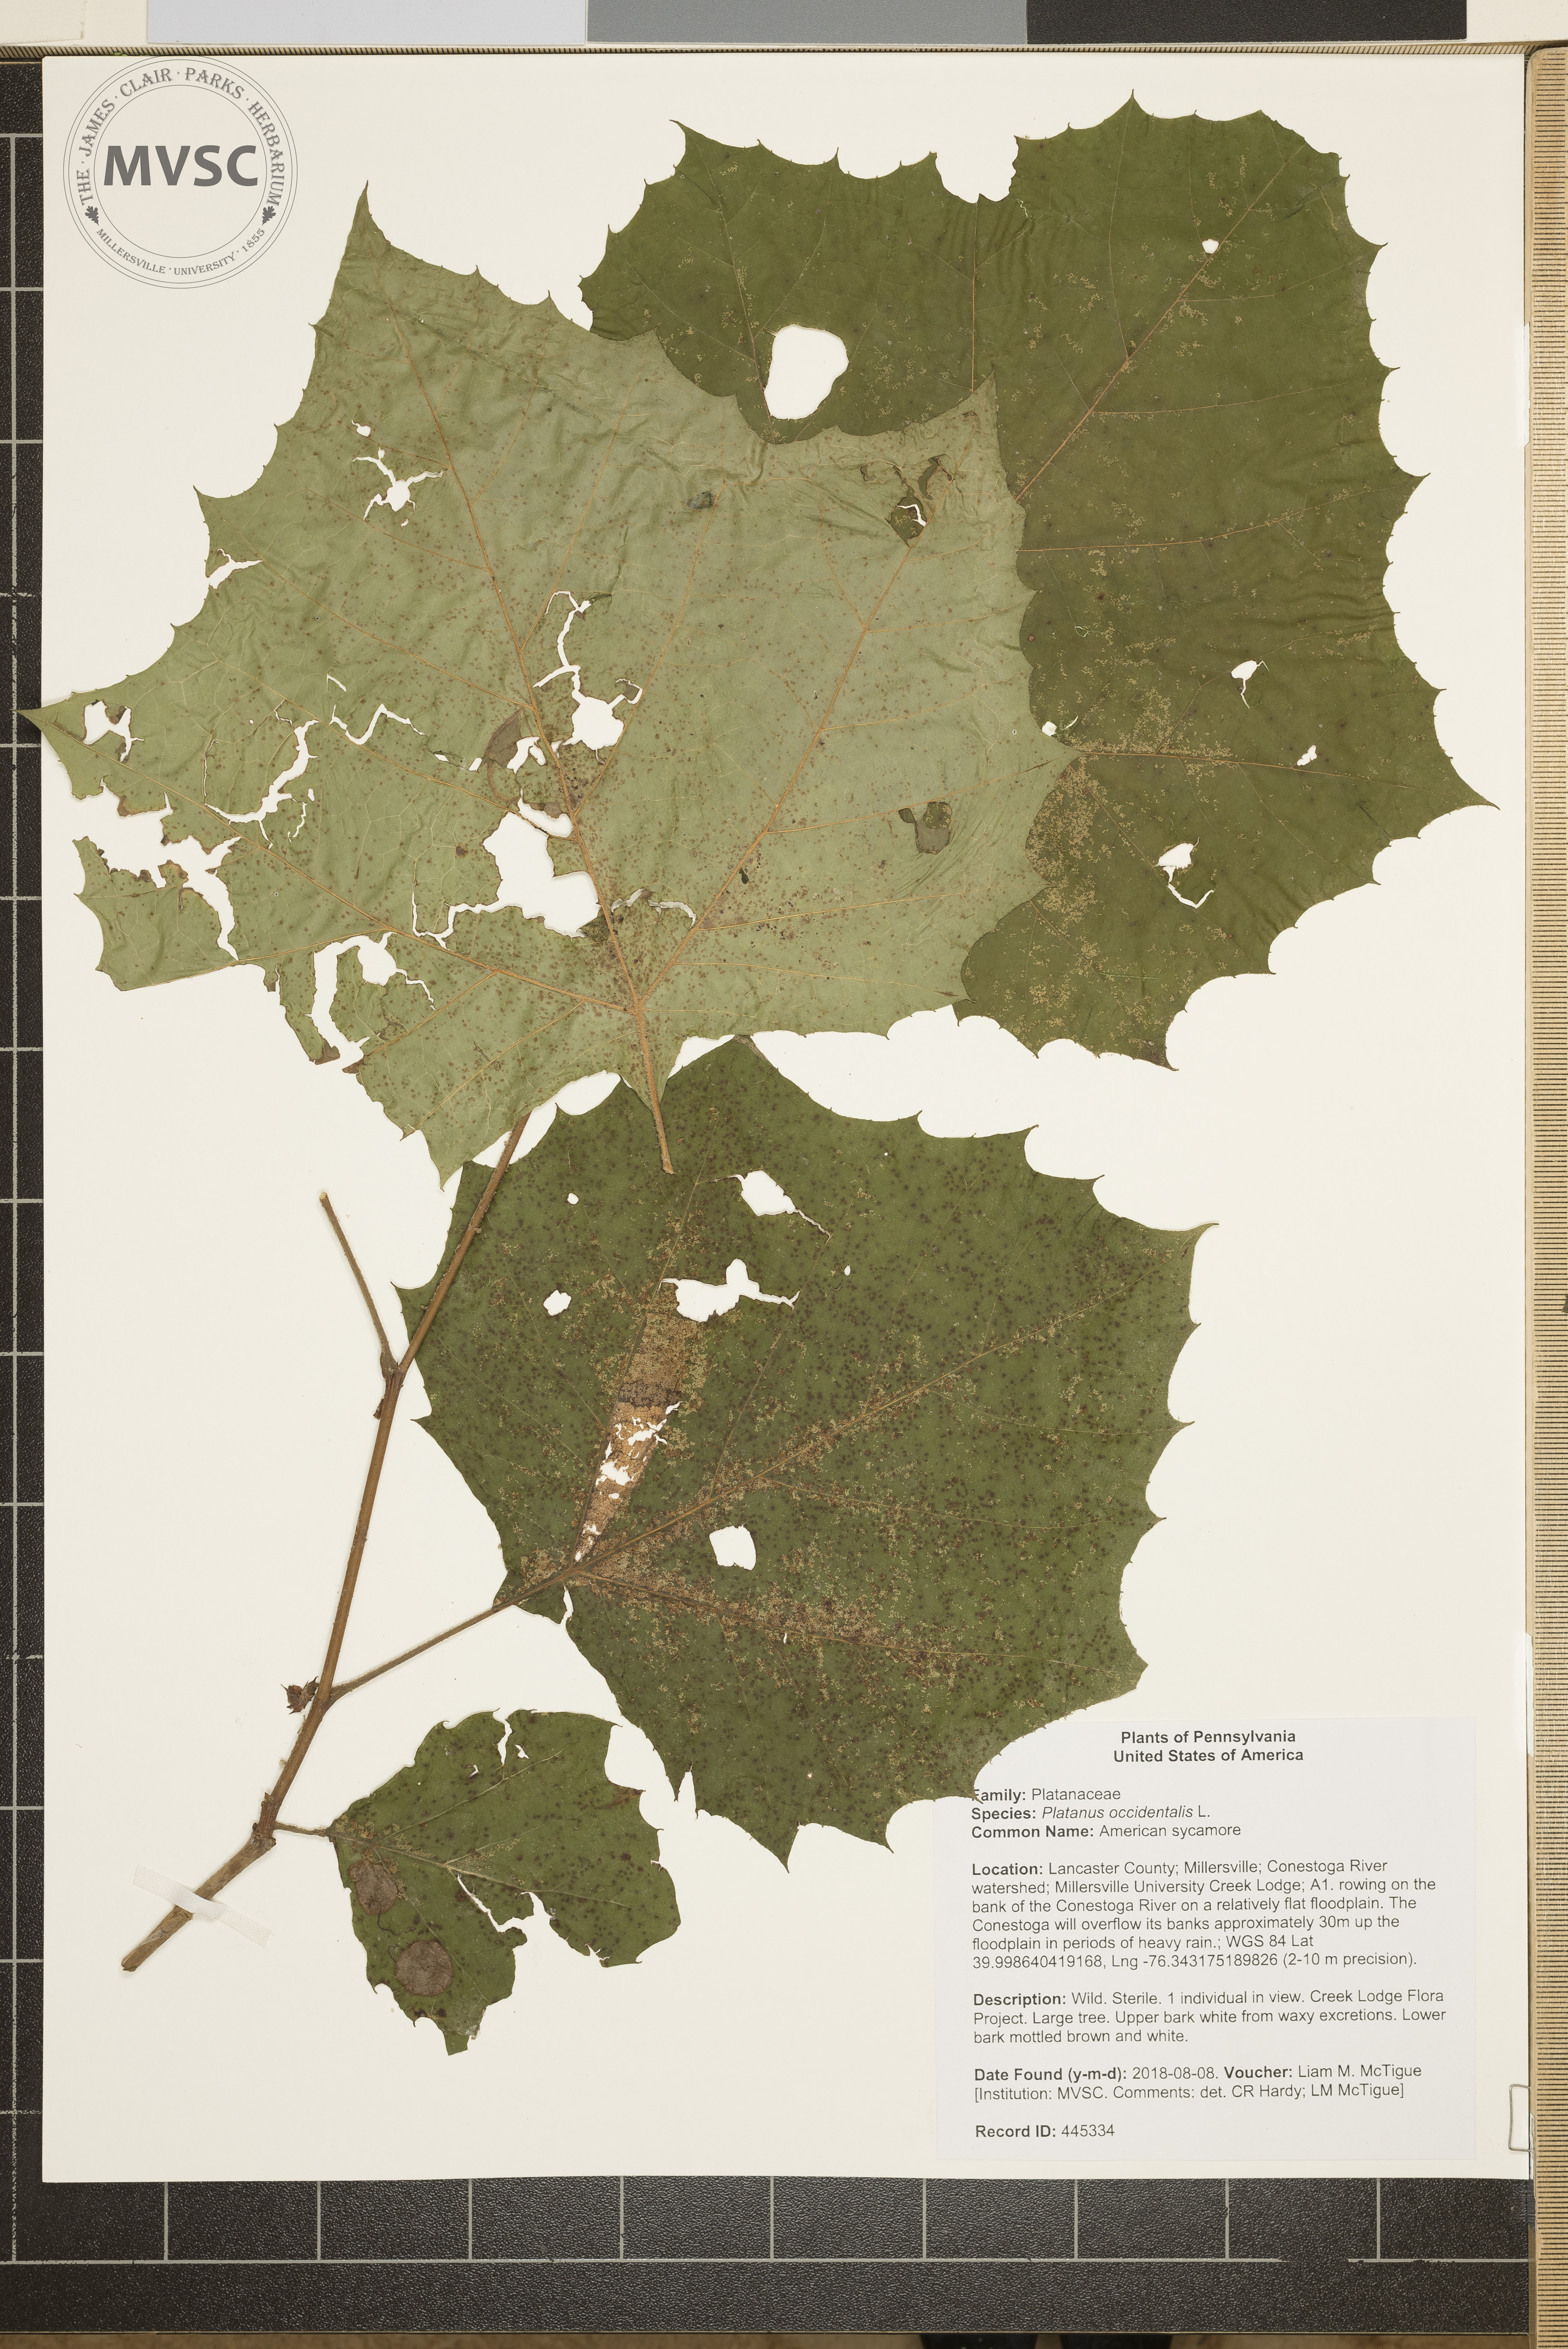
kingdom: Plantae
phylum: Tracheophyta
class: Magnoliopsida
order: Proteales
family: Platanaceae
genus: Platanus
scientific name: Platanus occidentalis
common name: American sycamore
